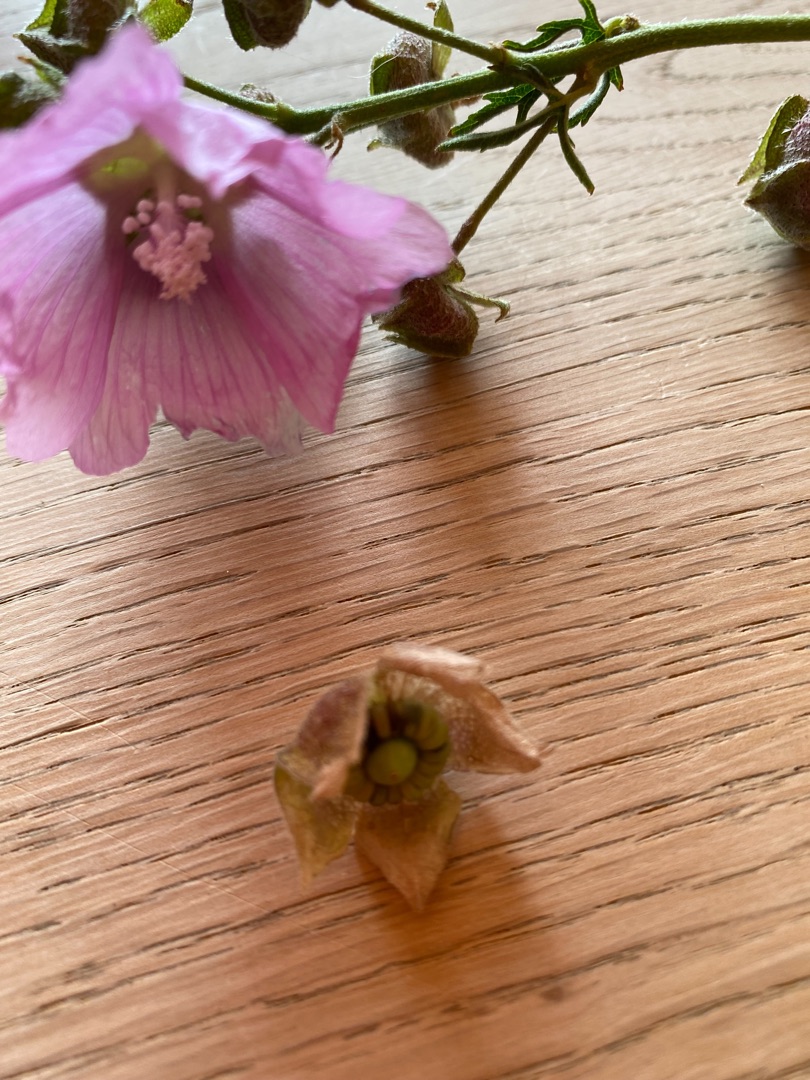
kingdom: Plantae
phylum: Tracheophyta
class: Magnoliopsida
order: Malvales
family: Malvaceae
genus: Malva
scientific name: Malva alcea
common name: Rosen-katost
